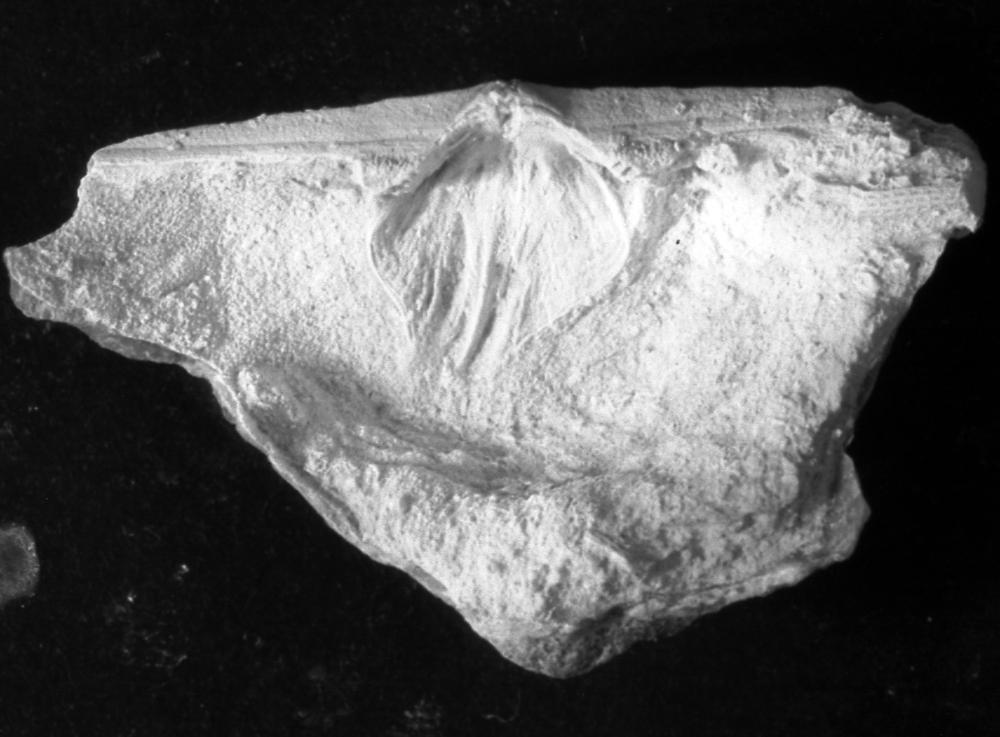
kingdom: Animalia
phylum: Brachiopoda
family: Strophomenidae
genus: Geniculina
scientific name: Geniculina ralfi
